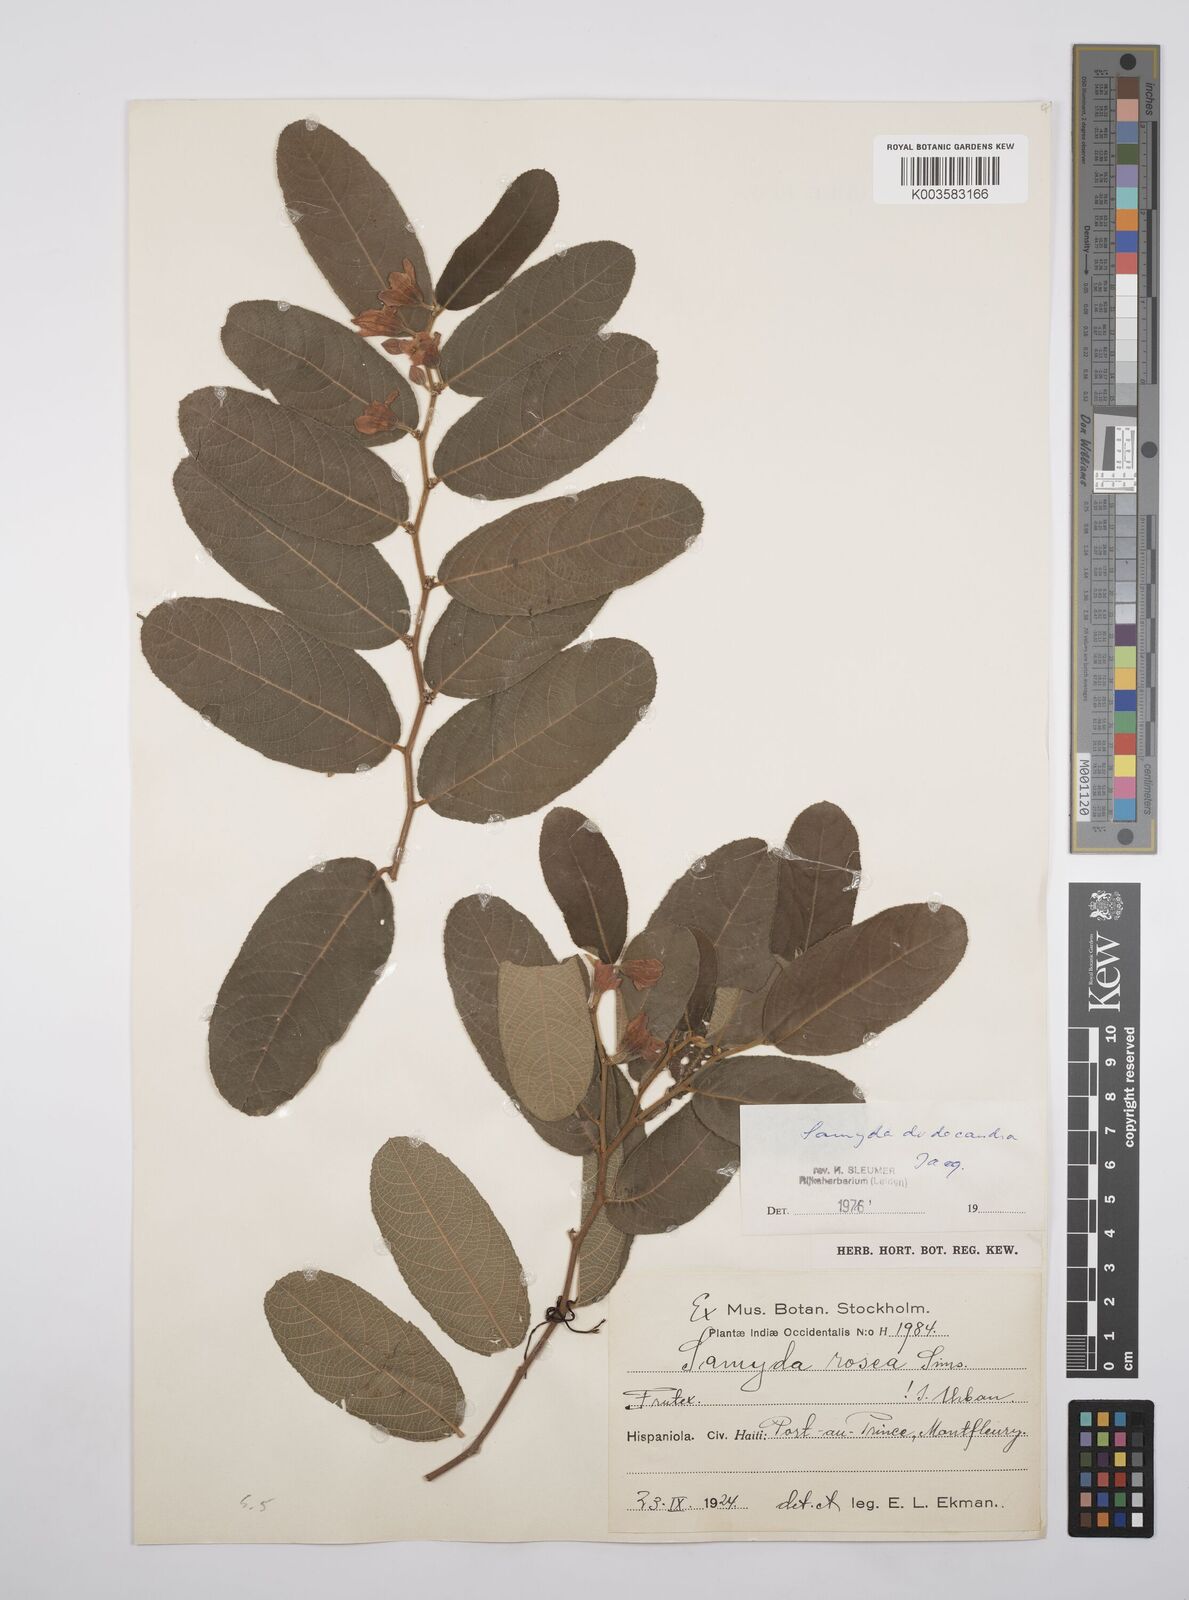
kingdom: Plantae
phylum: Tracheophyta
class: Magnoliopsida
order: Malpighiales
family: Salicaceae
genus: Casearia
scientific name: Casearia dodecandra
